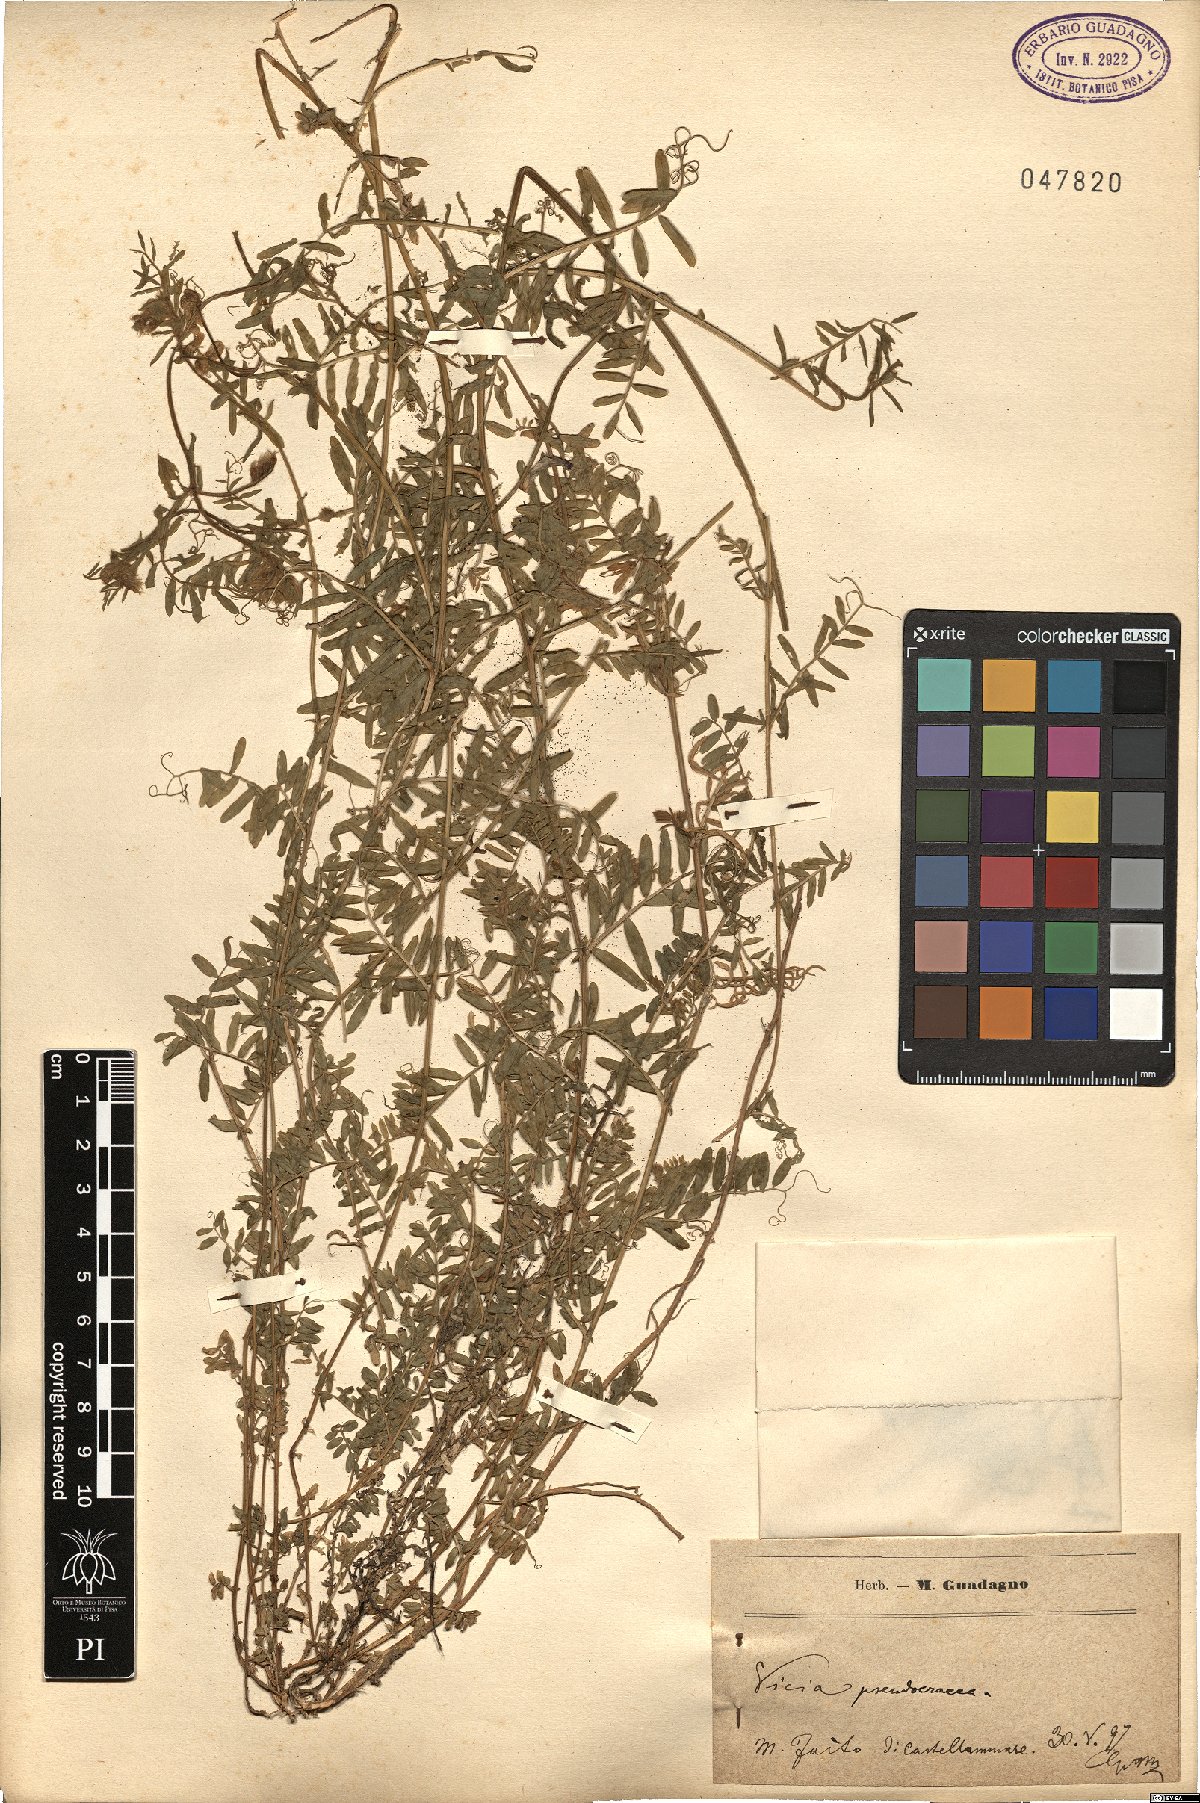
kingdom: Plantae
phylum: Tracheophyta
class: Magnoliopsida
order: Fabales
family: Fabaceae
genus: Vicia
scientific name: Vicia villosa
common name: Fodder vetch
